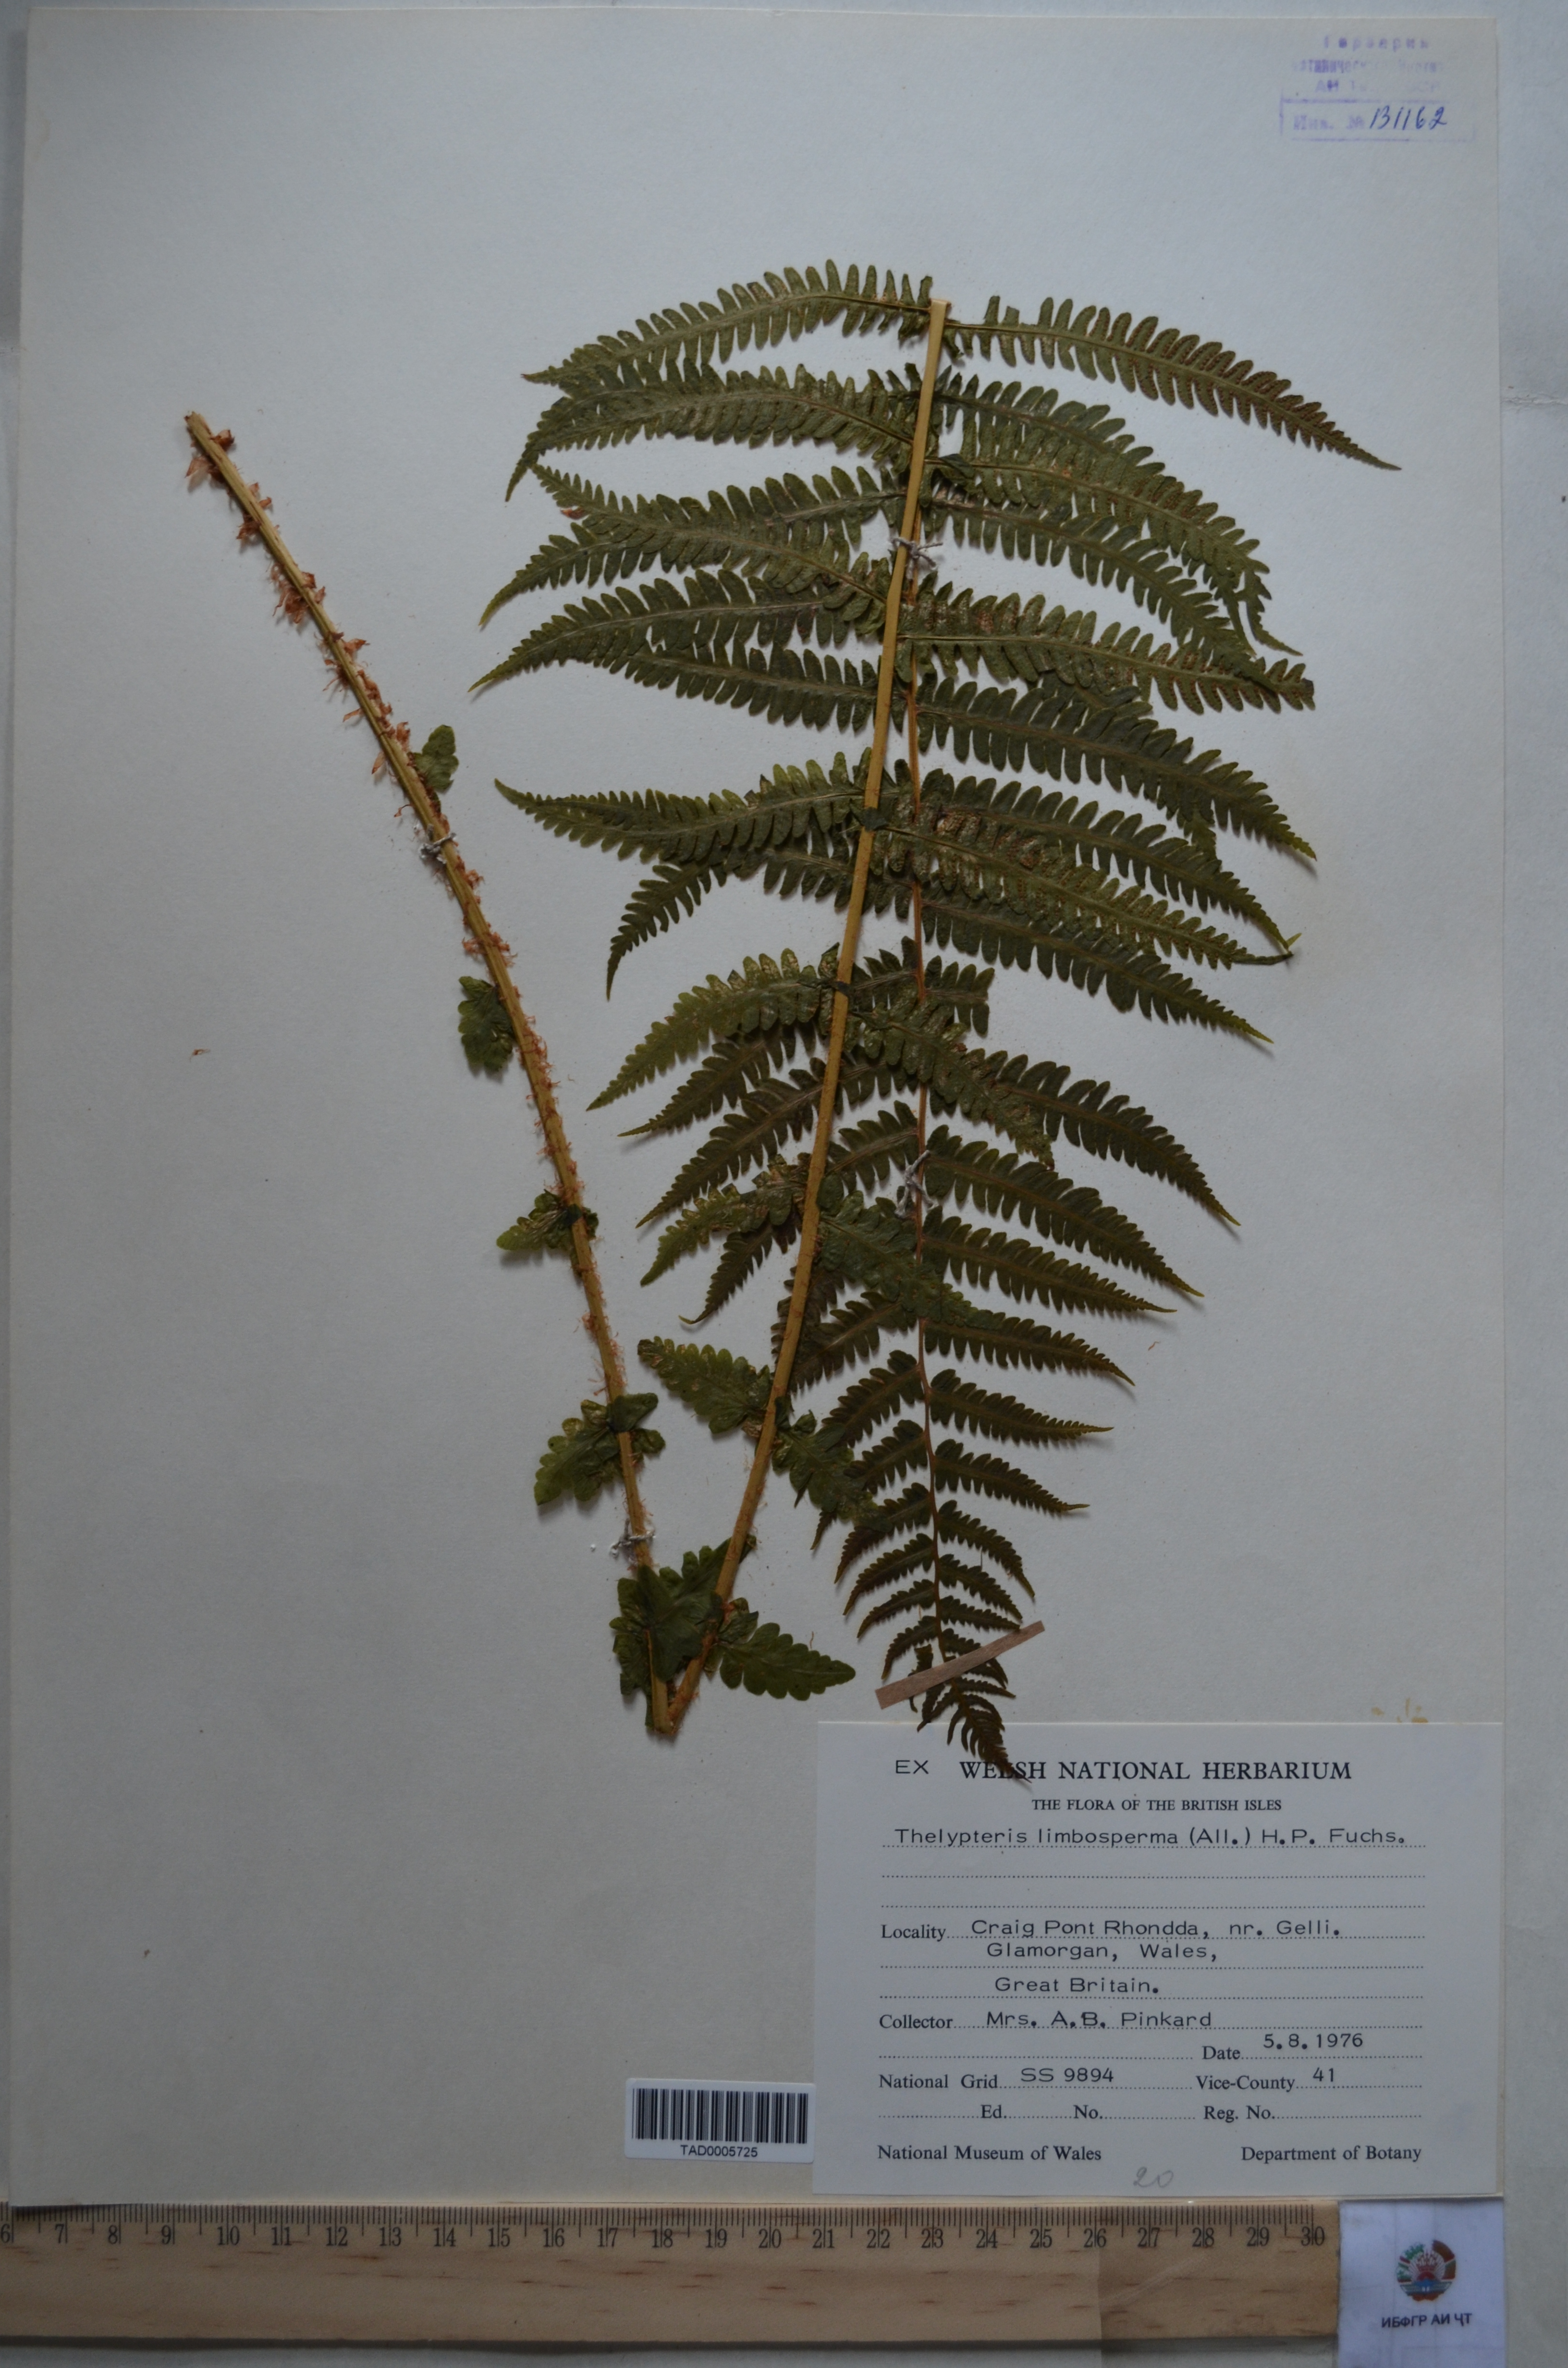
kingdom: Plantae
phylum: Tracheophyta
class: Polypodiopsida
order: Polypodiales
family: Thelypteridaceae
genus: Oreopteris
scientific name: Oreopteris limbosperma
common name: Lemon-scented fern
